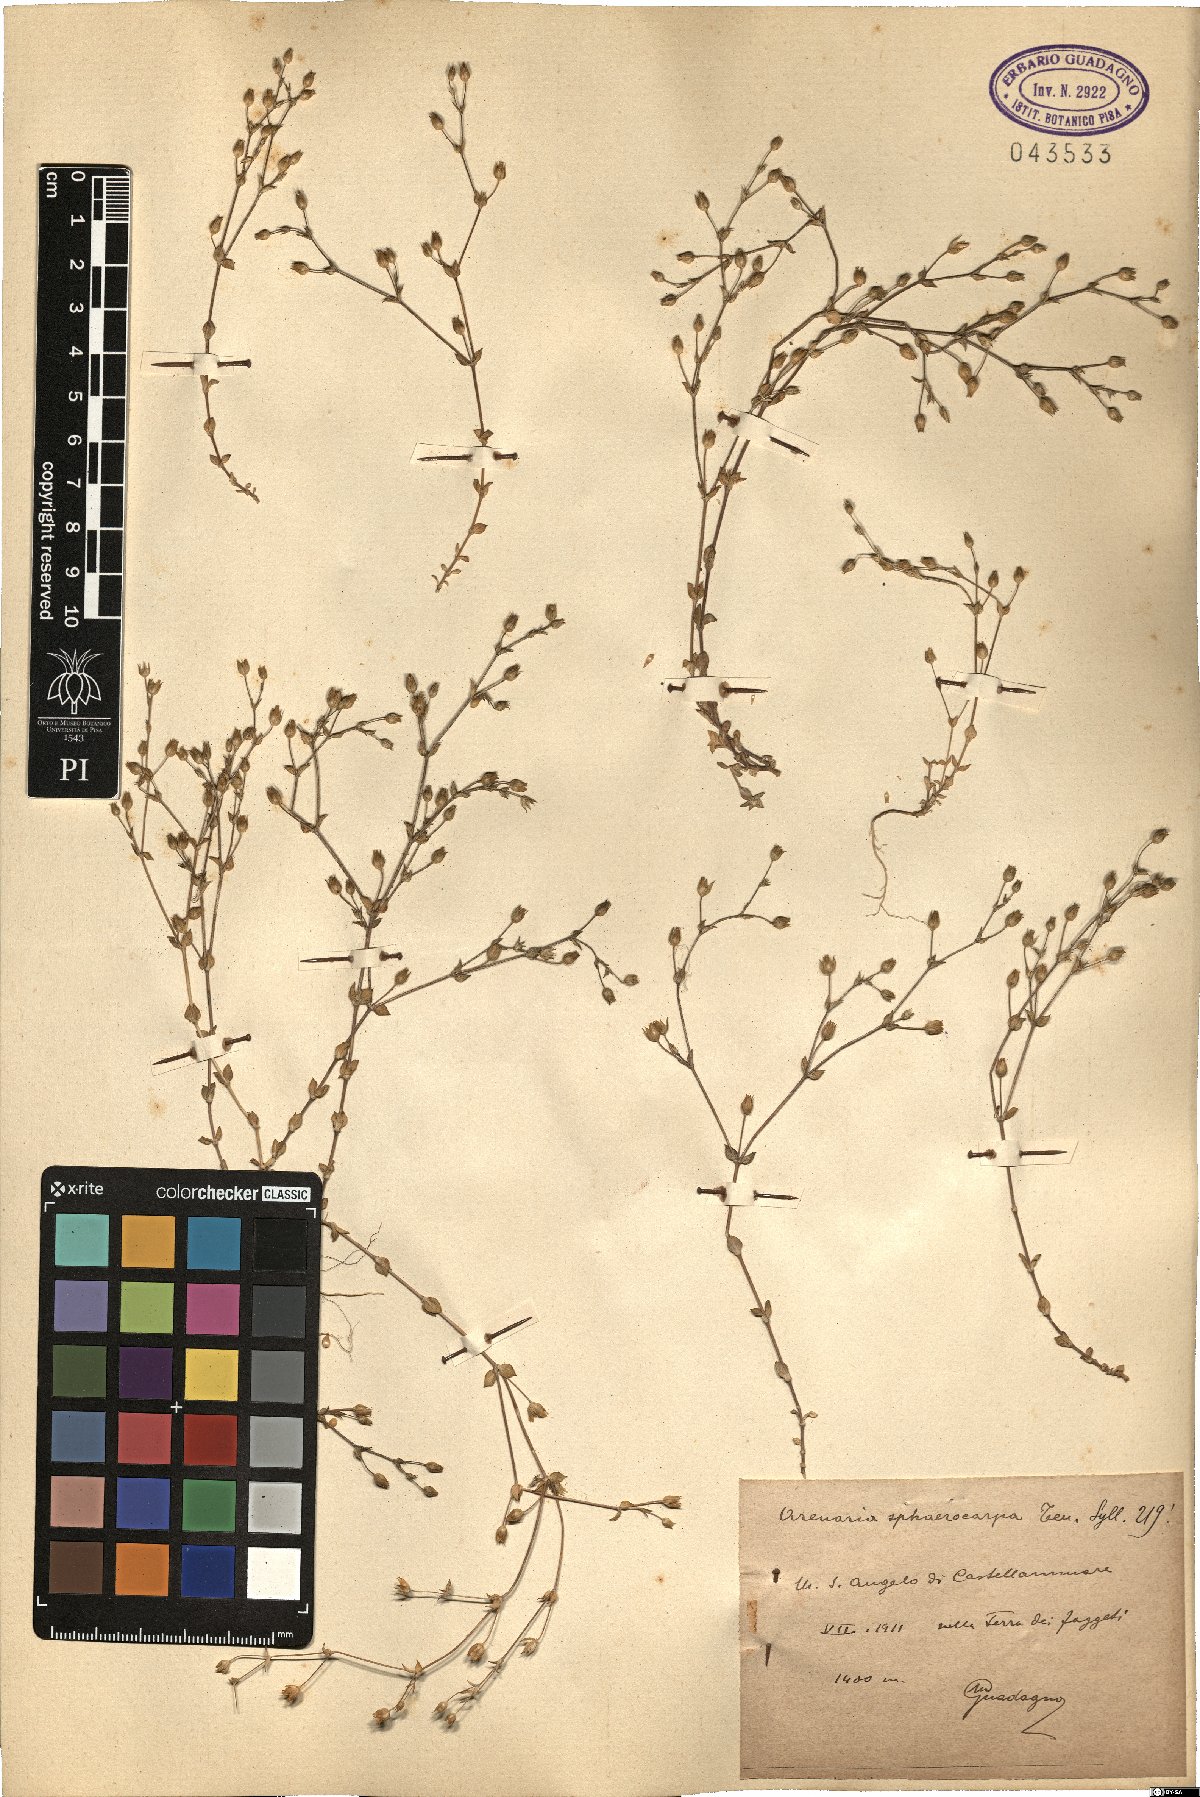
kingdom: Plantae
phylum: Tracheophyta
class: Magnoliopsida
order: Caryophyllales
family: Caryophyllaceae
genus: Arenaria
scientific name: Arenaria serpyllifolia
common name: Thyme-leaved sandwort
